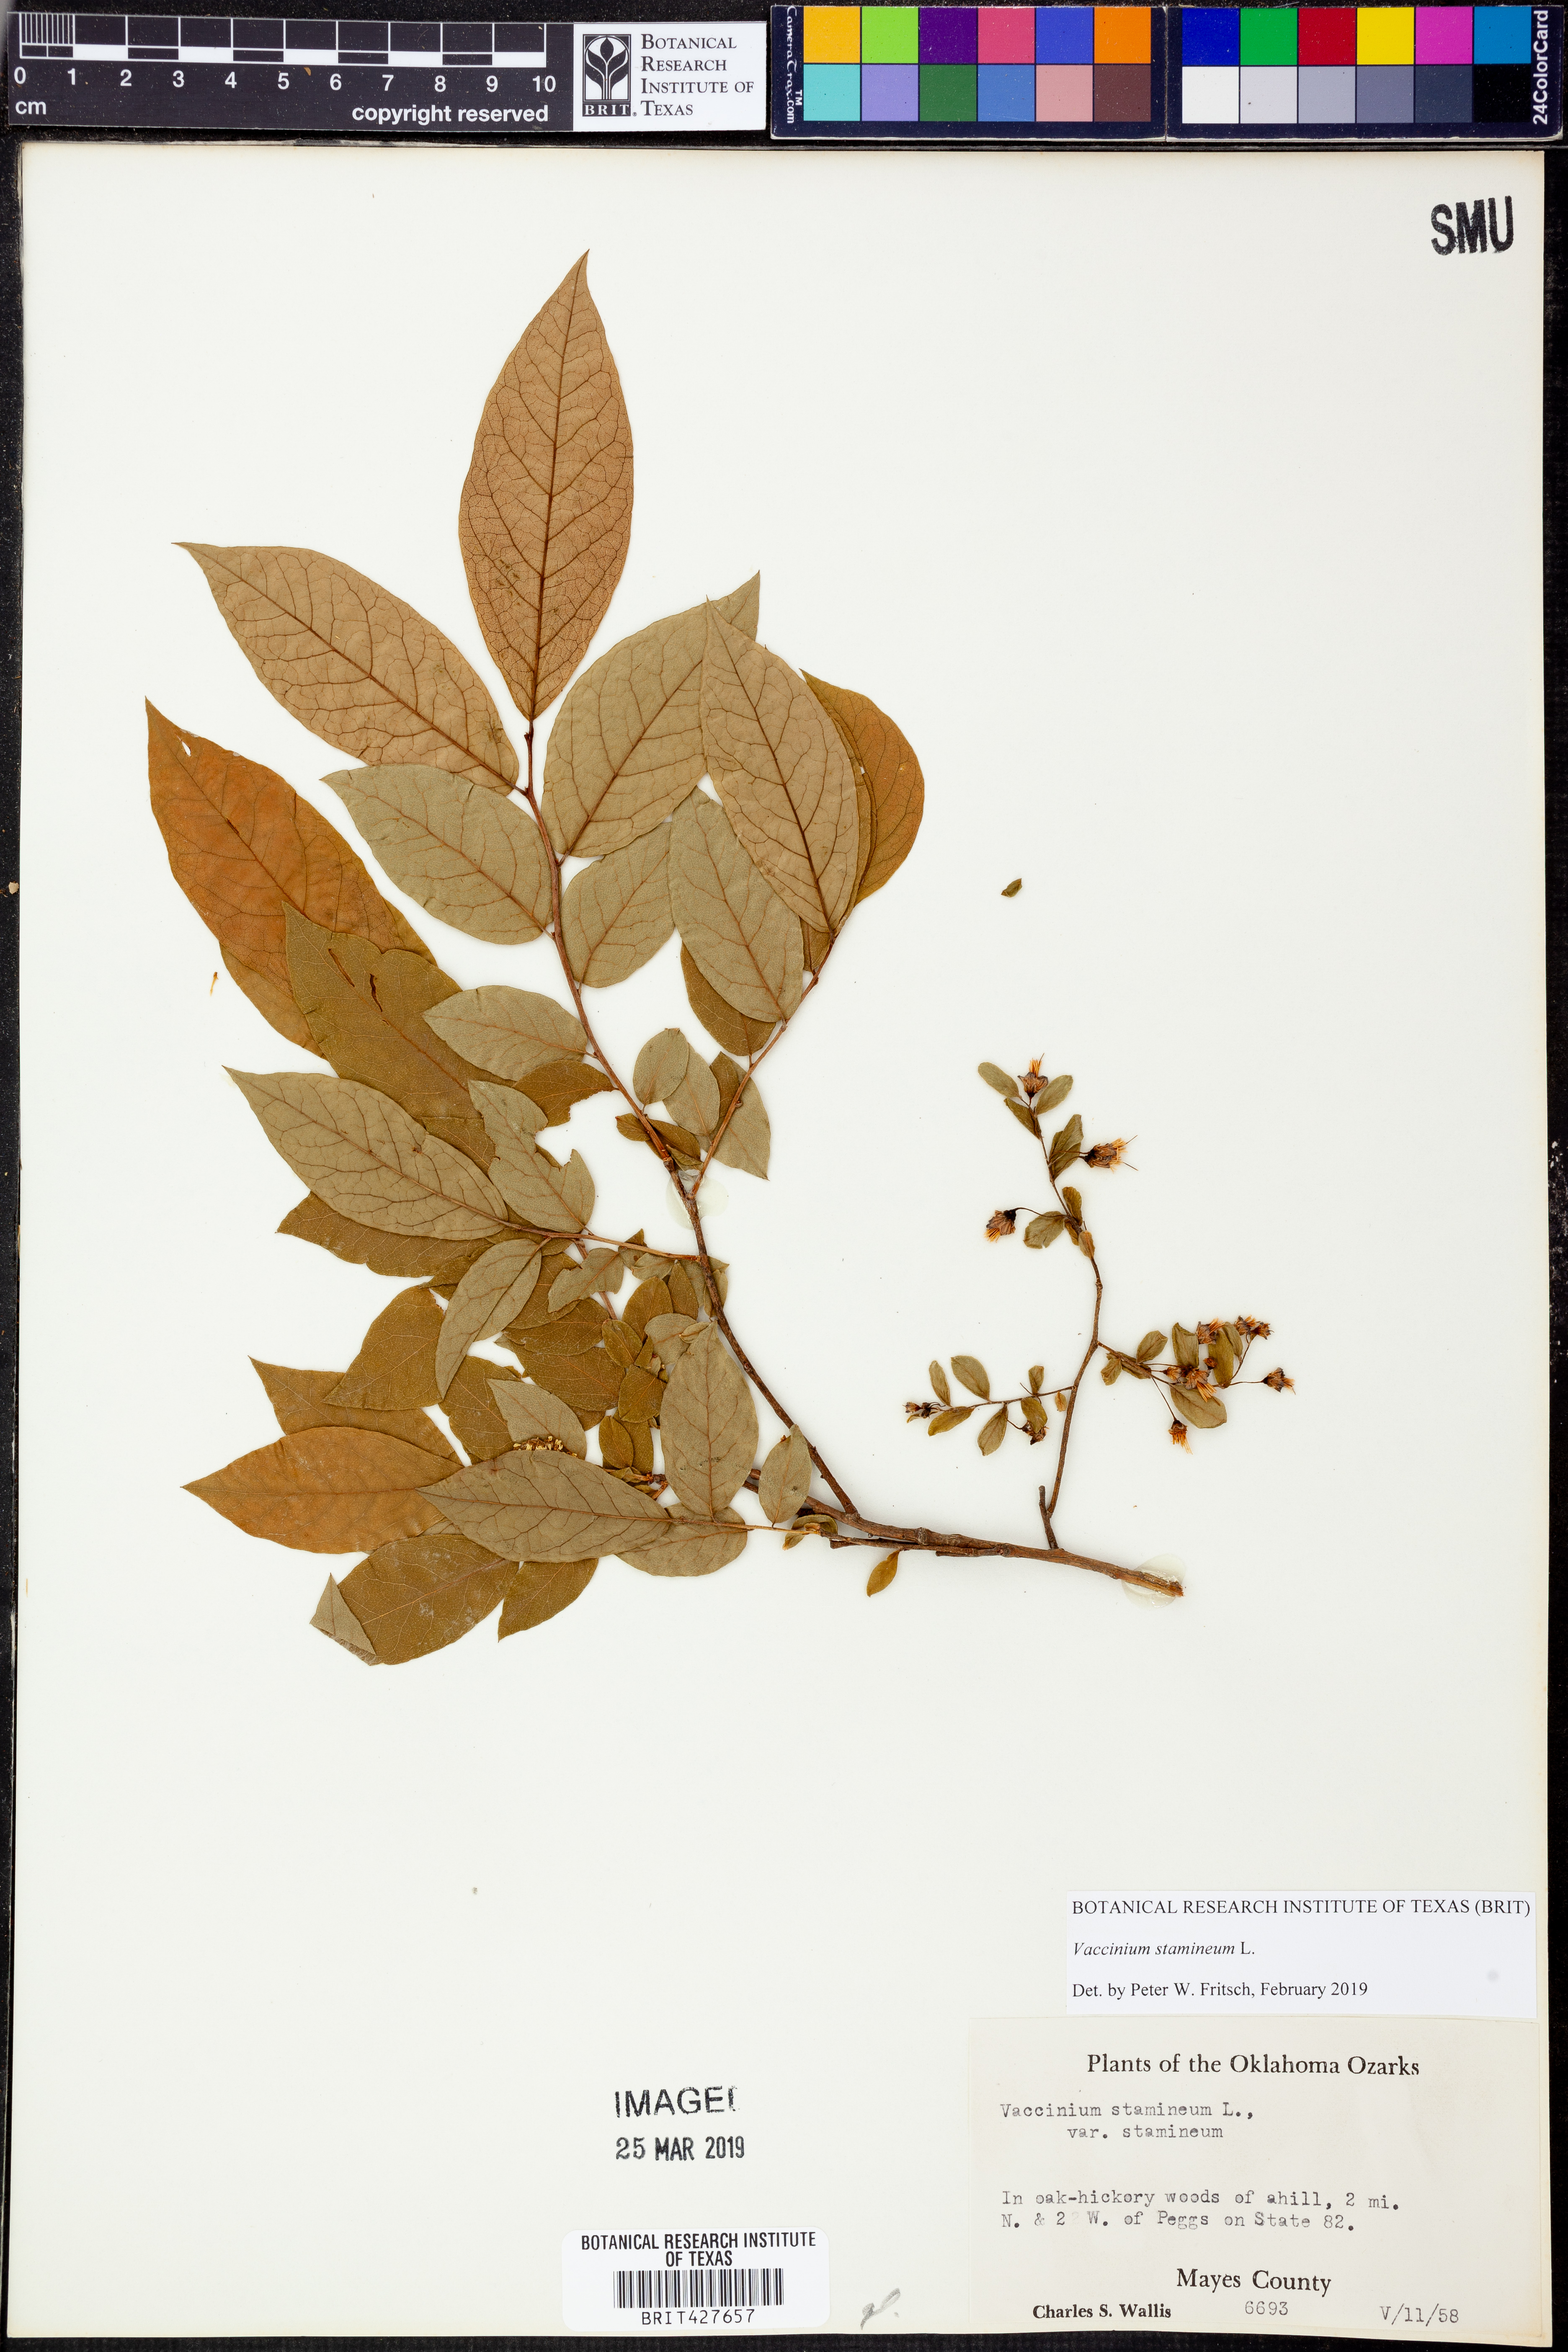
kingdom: Plantae
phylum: Tracheophyta
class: Magnoliopsida
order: Ericales
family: Ericaceae
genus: Vaccinium
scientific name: Vaccinium stamineum
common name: Deerberry
